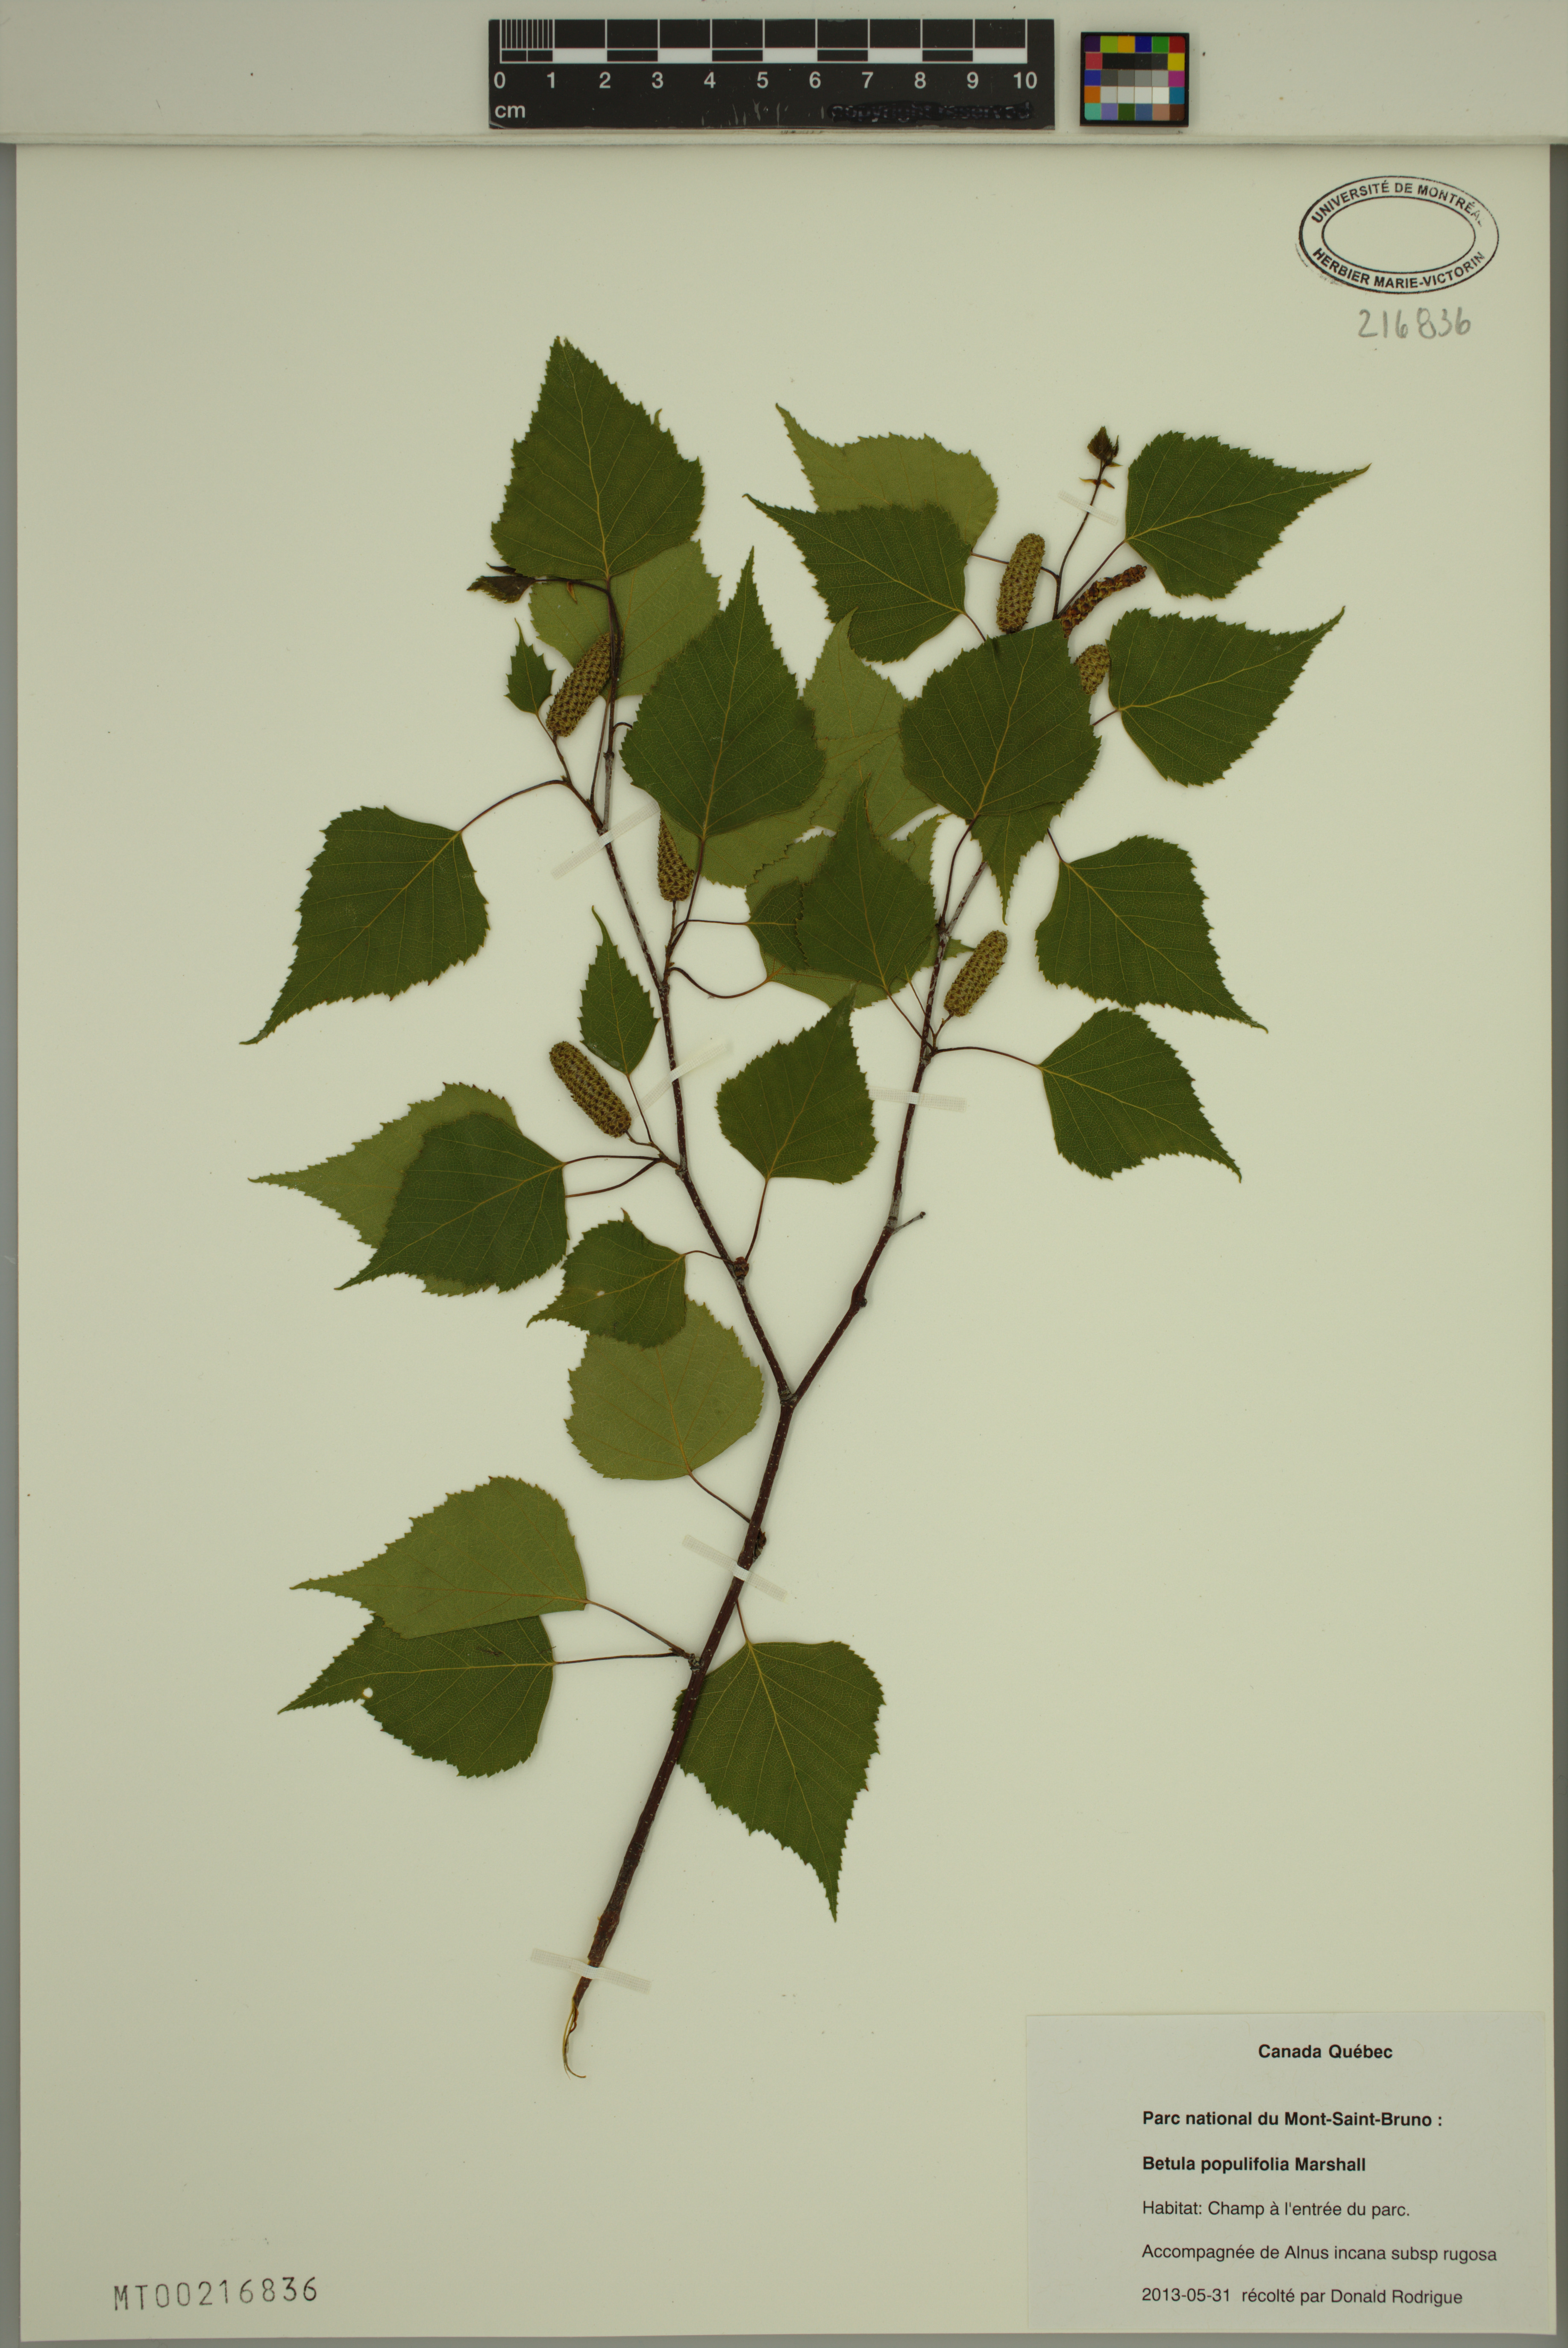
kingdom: Plantae
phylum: Tracheophyta
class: Magnoliopsida
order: Fagales
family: Betulaceae
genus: Betula
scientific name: Betula populifolia
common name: Fire birch
